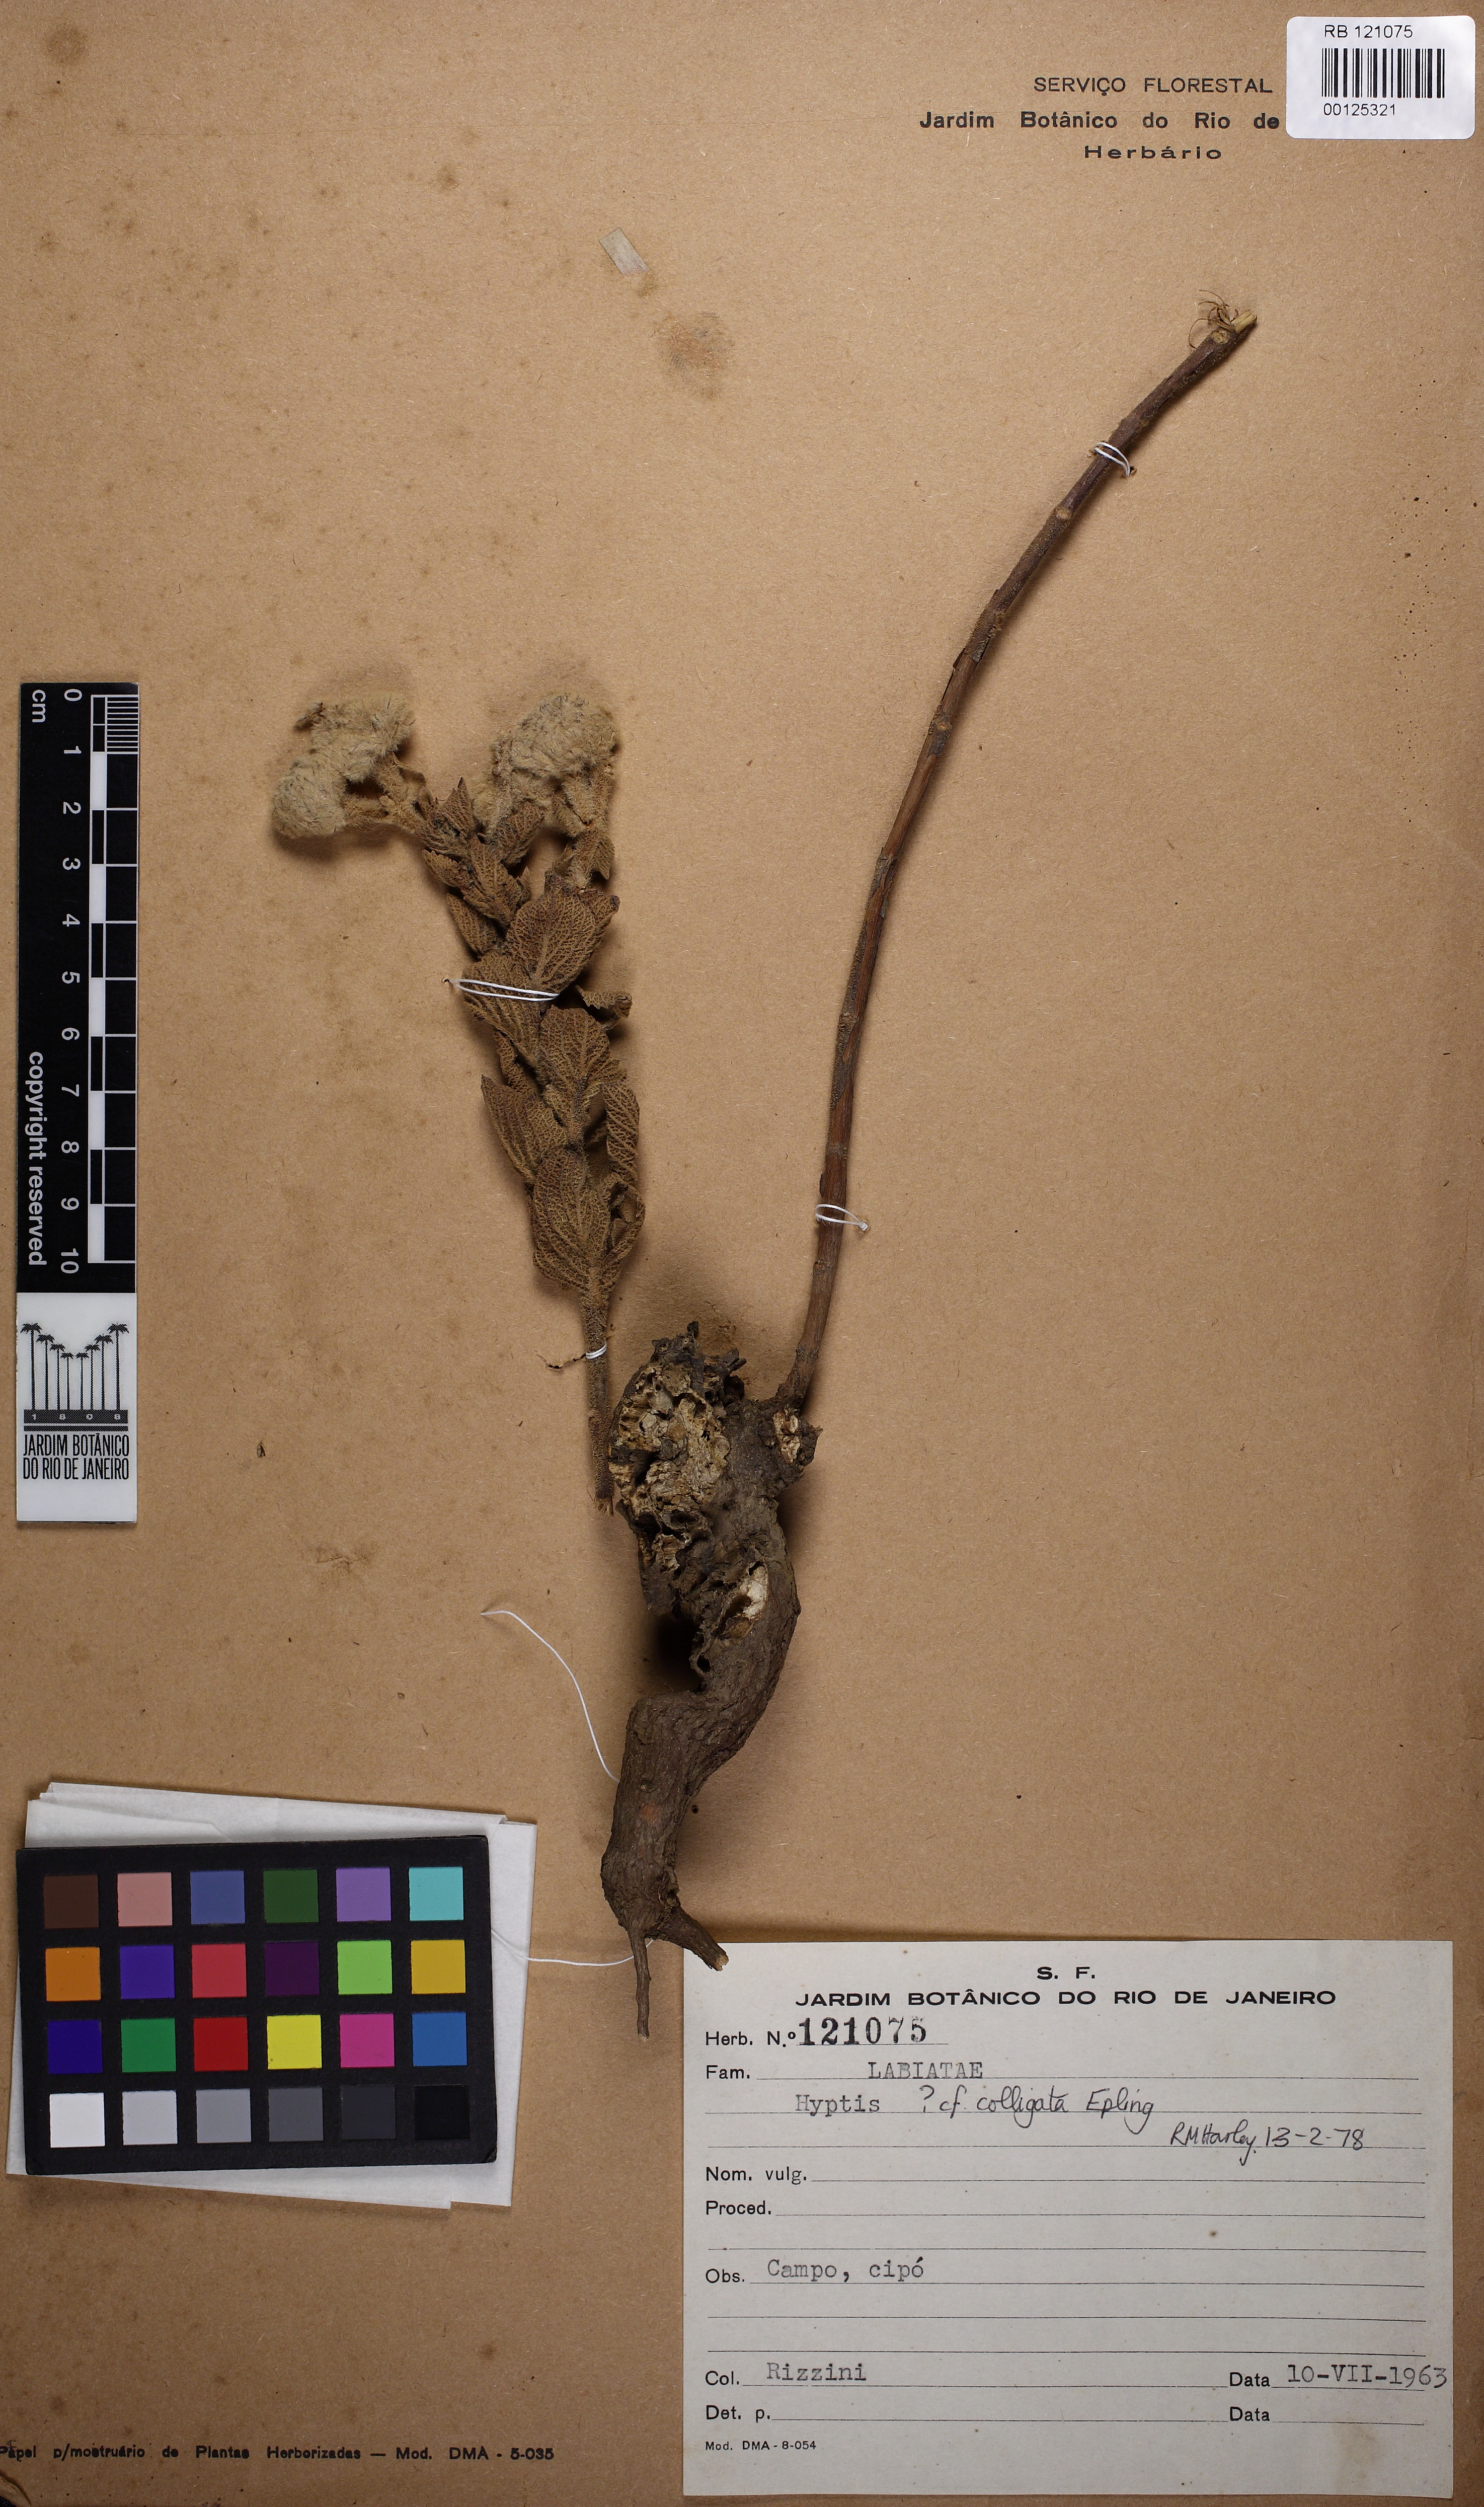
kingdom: Plantae
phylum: Tracheophyta
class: Magnoliopsida
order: Lamiales
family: Lamiaceae
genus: Hyptis
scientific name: Hyptis colligata
